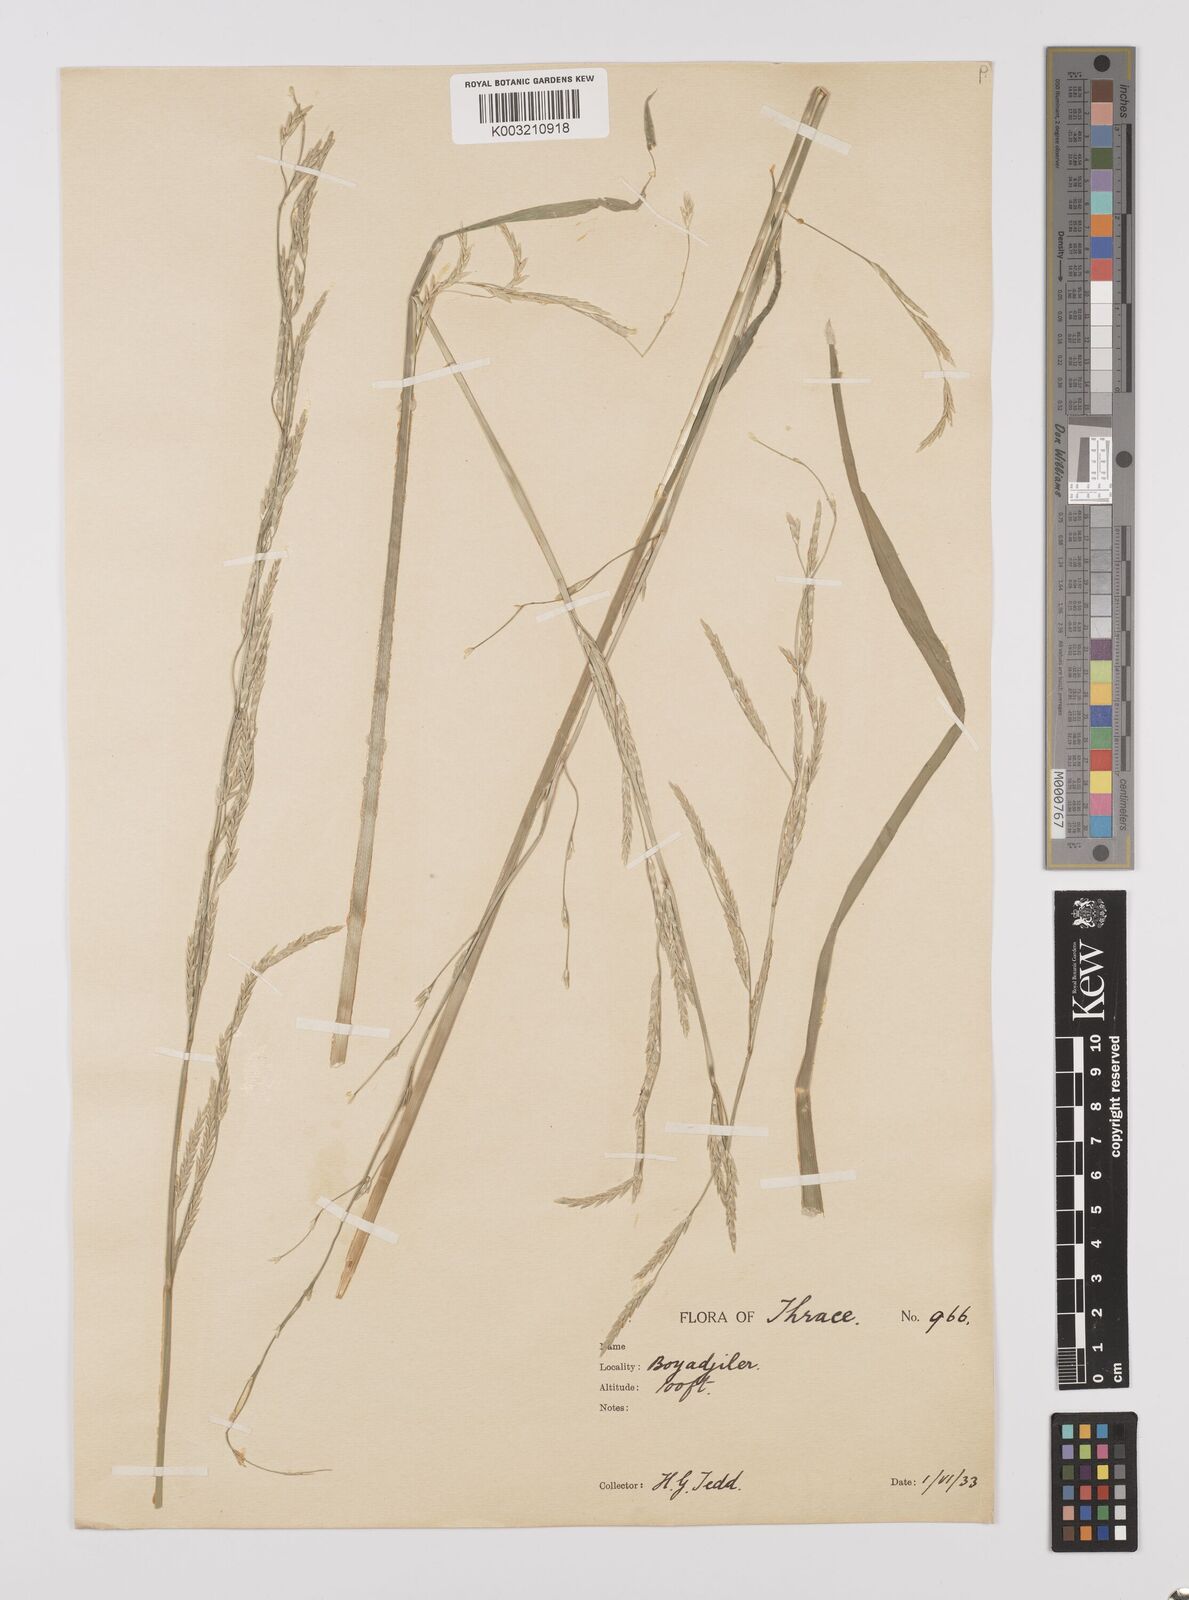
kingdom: Plantae
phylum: Tracheophyta
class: Liliopsida
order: Poales
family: Poaceae
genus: Glyceria
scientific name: Glyceria fluitans
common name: Floating sweet-grass
